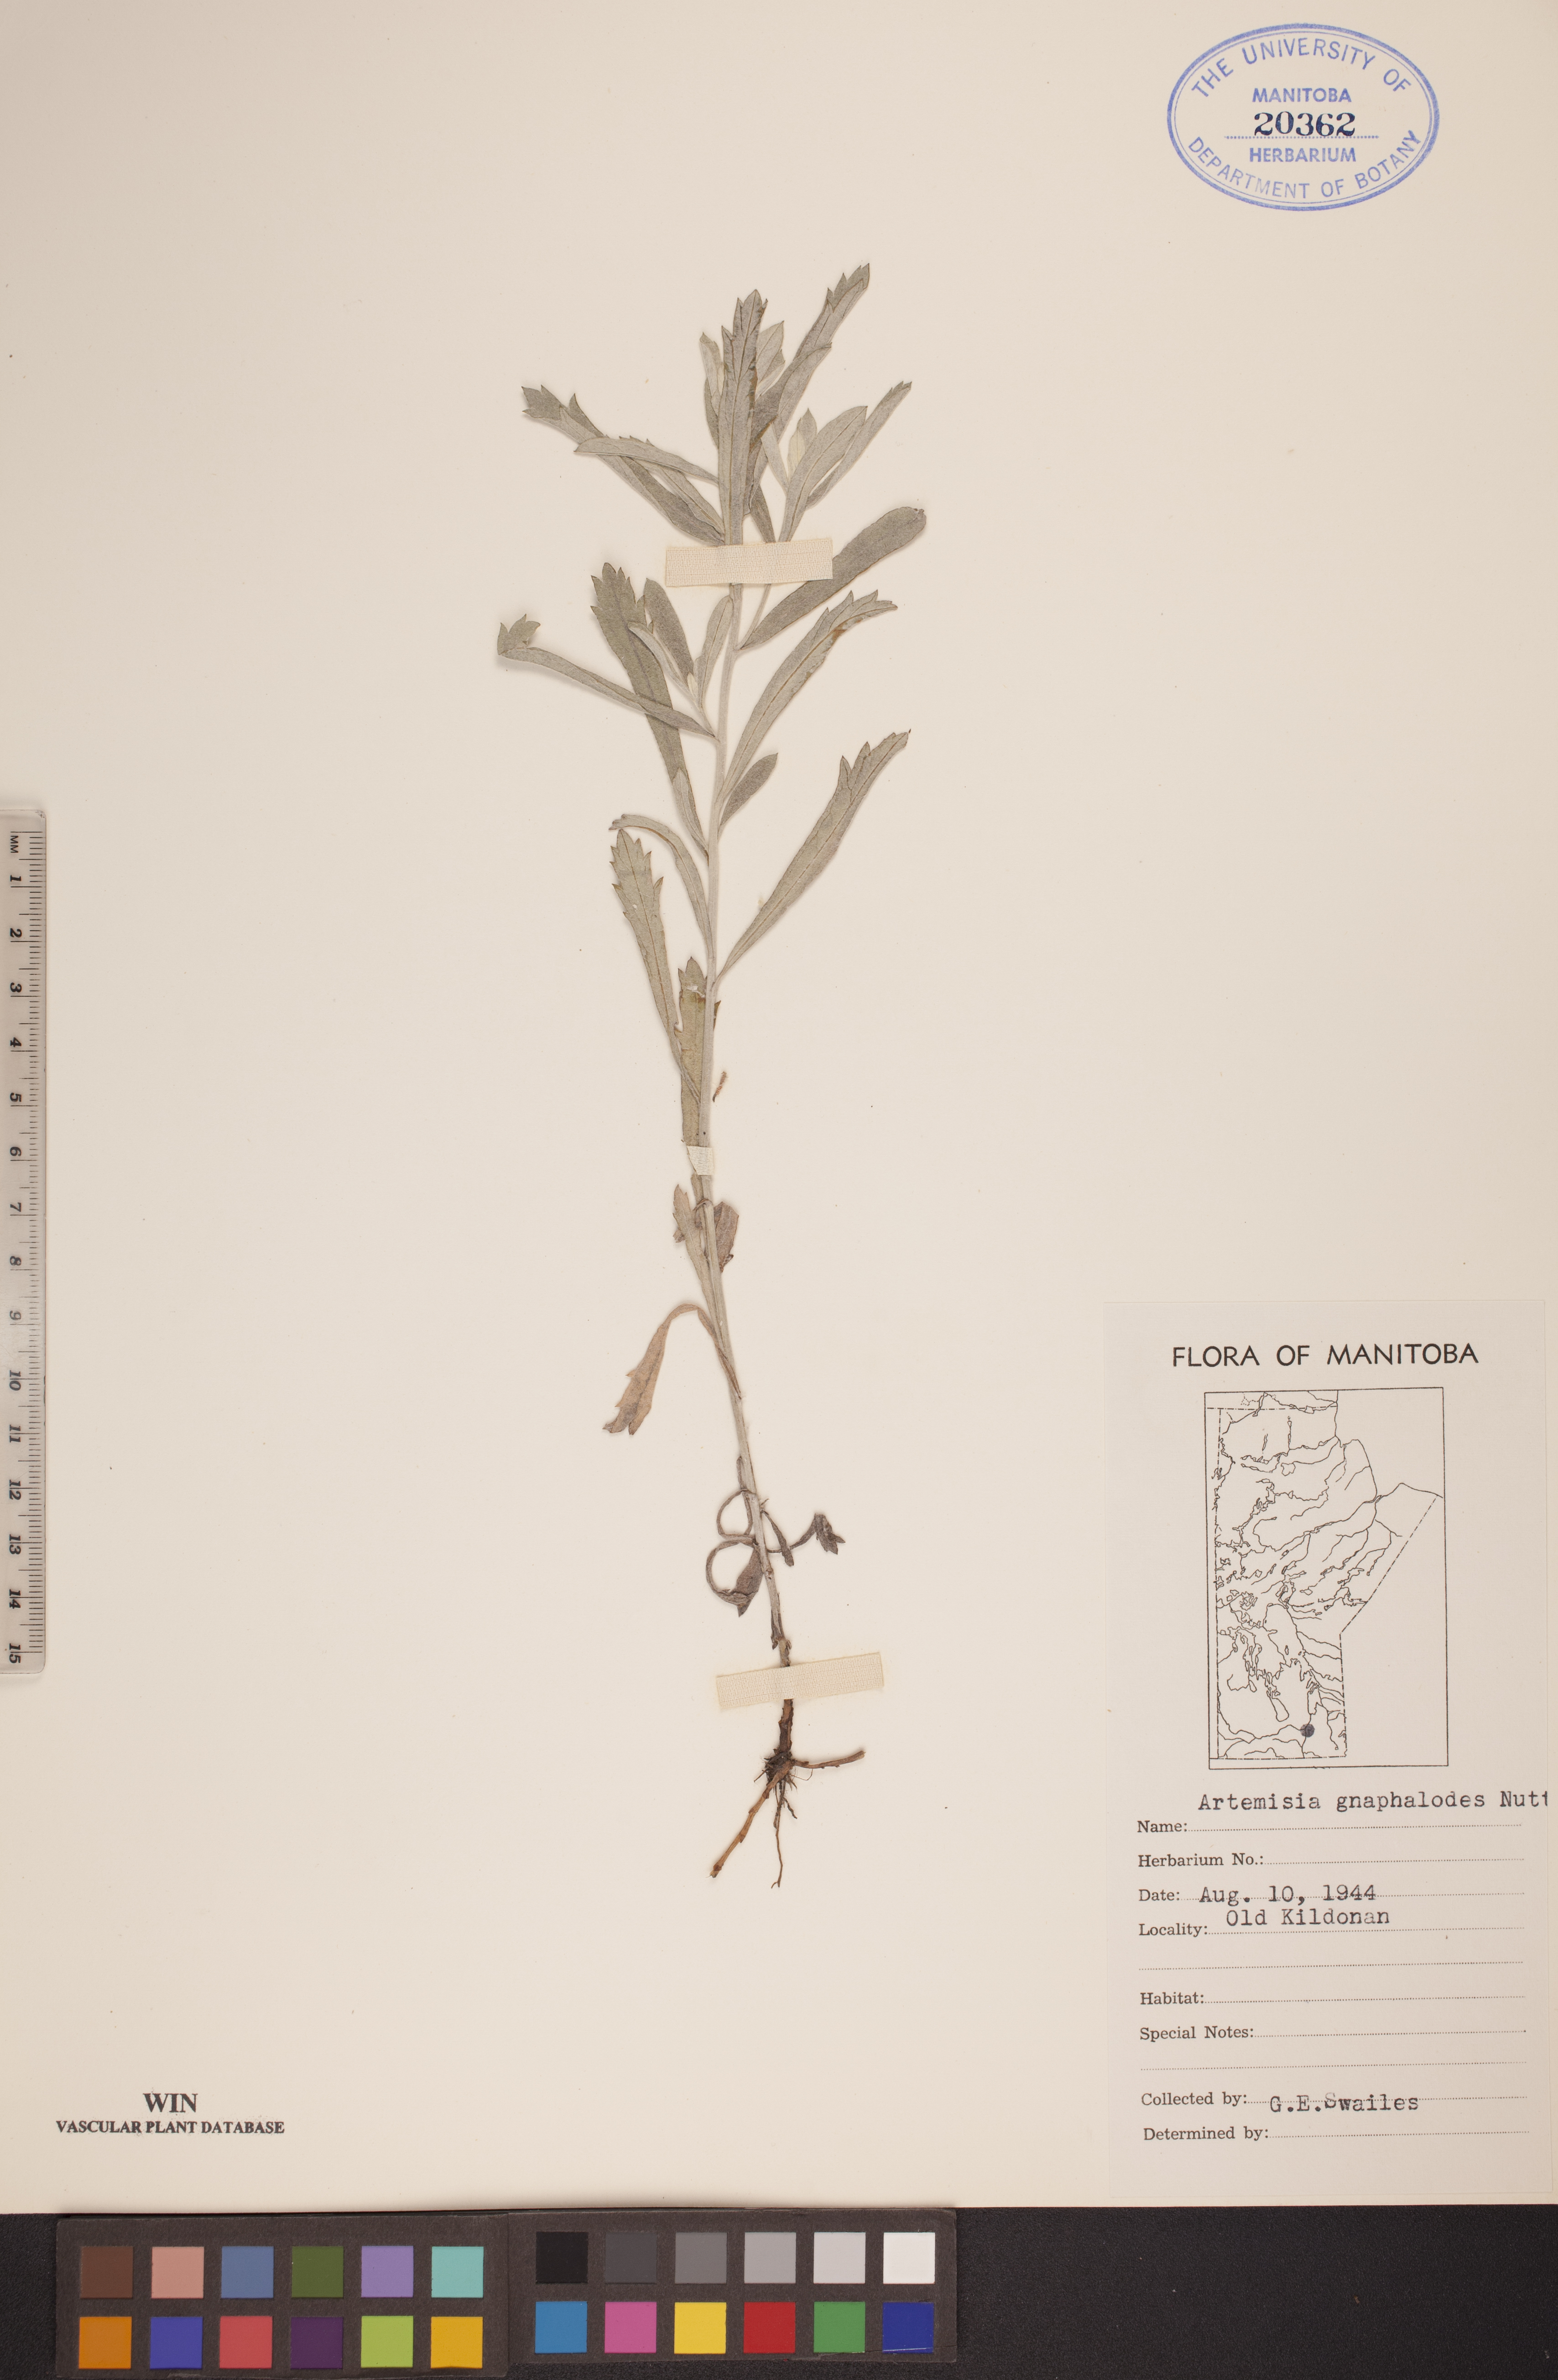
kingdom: Plantae
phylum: Tracheophyta
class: Magnoliopsida
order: Asterales
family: Asteraceae
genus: Artemisia
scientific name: Artemisia ludoviciana
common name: Western mugwort
